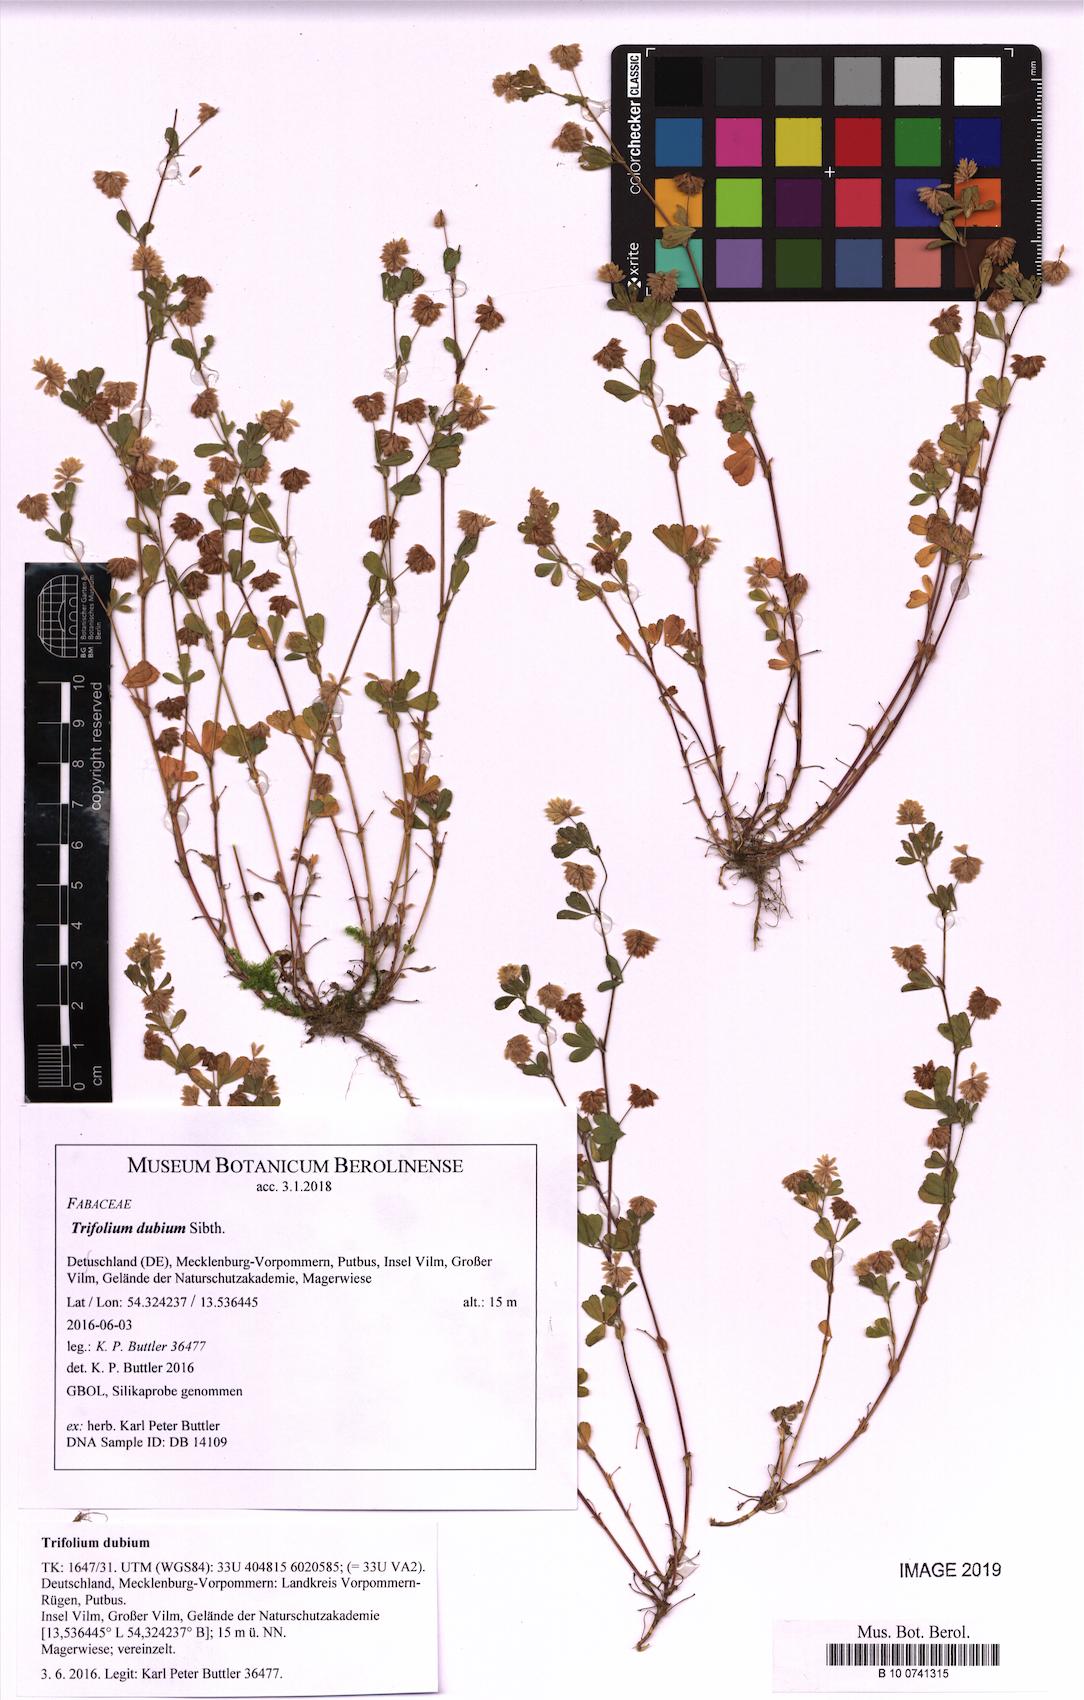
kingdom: Plantae
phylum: Tracheophyta
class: Magnoliopsida
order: Fabales
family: Fabaceae
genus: Trifolium
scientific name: Trifolium dubium
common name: Suckling clover
